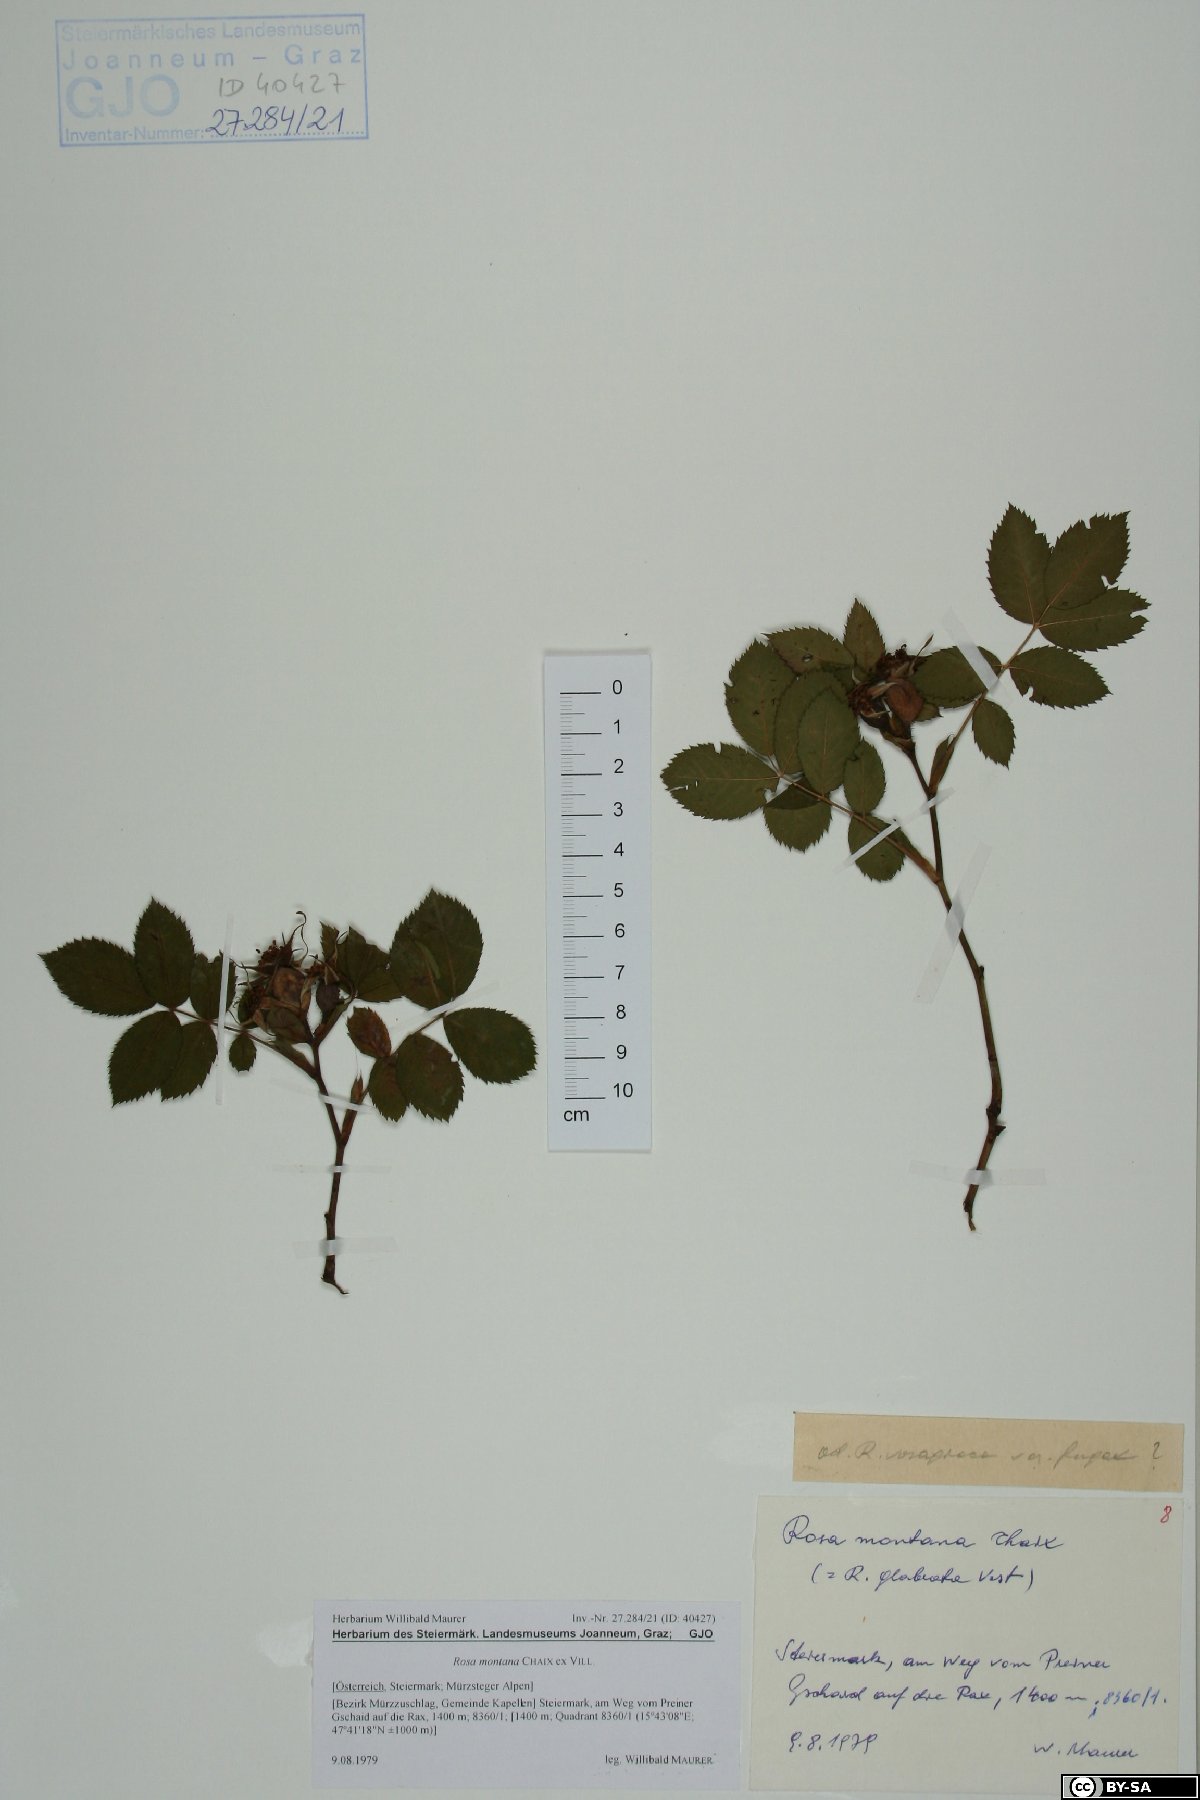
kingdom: Plantae
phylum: Tracheophyta
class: Magnoliopsida
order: Rosales
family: Rosaceae
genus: Rosa
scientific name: Rosa montana
